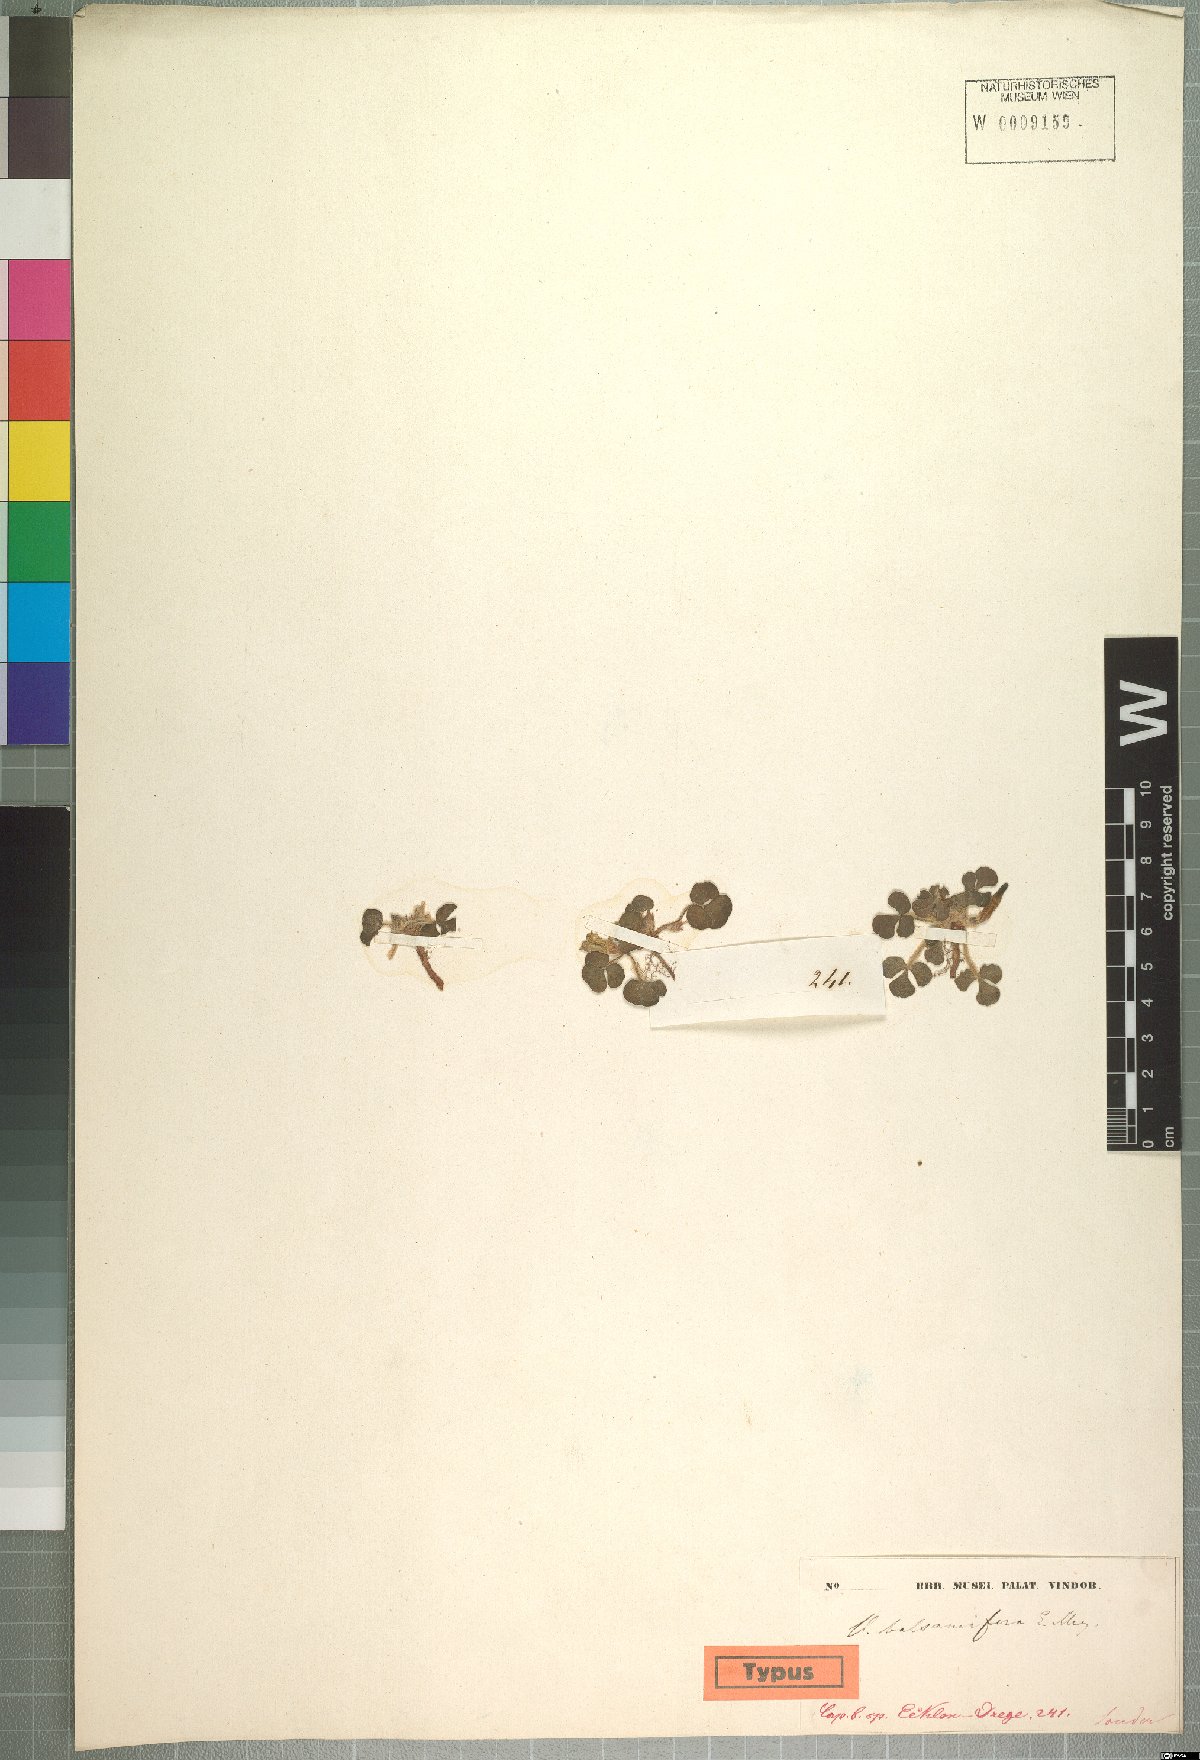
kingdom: Plantae
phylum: Tracheophyta
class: Magnoliopsida
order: Oxalidales
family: Oxalidaceae
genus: Oxalis
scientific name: Oxalis luteola
